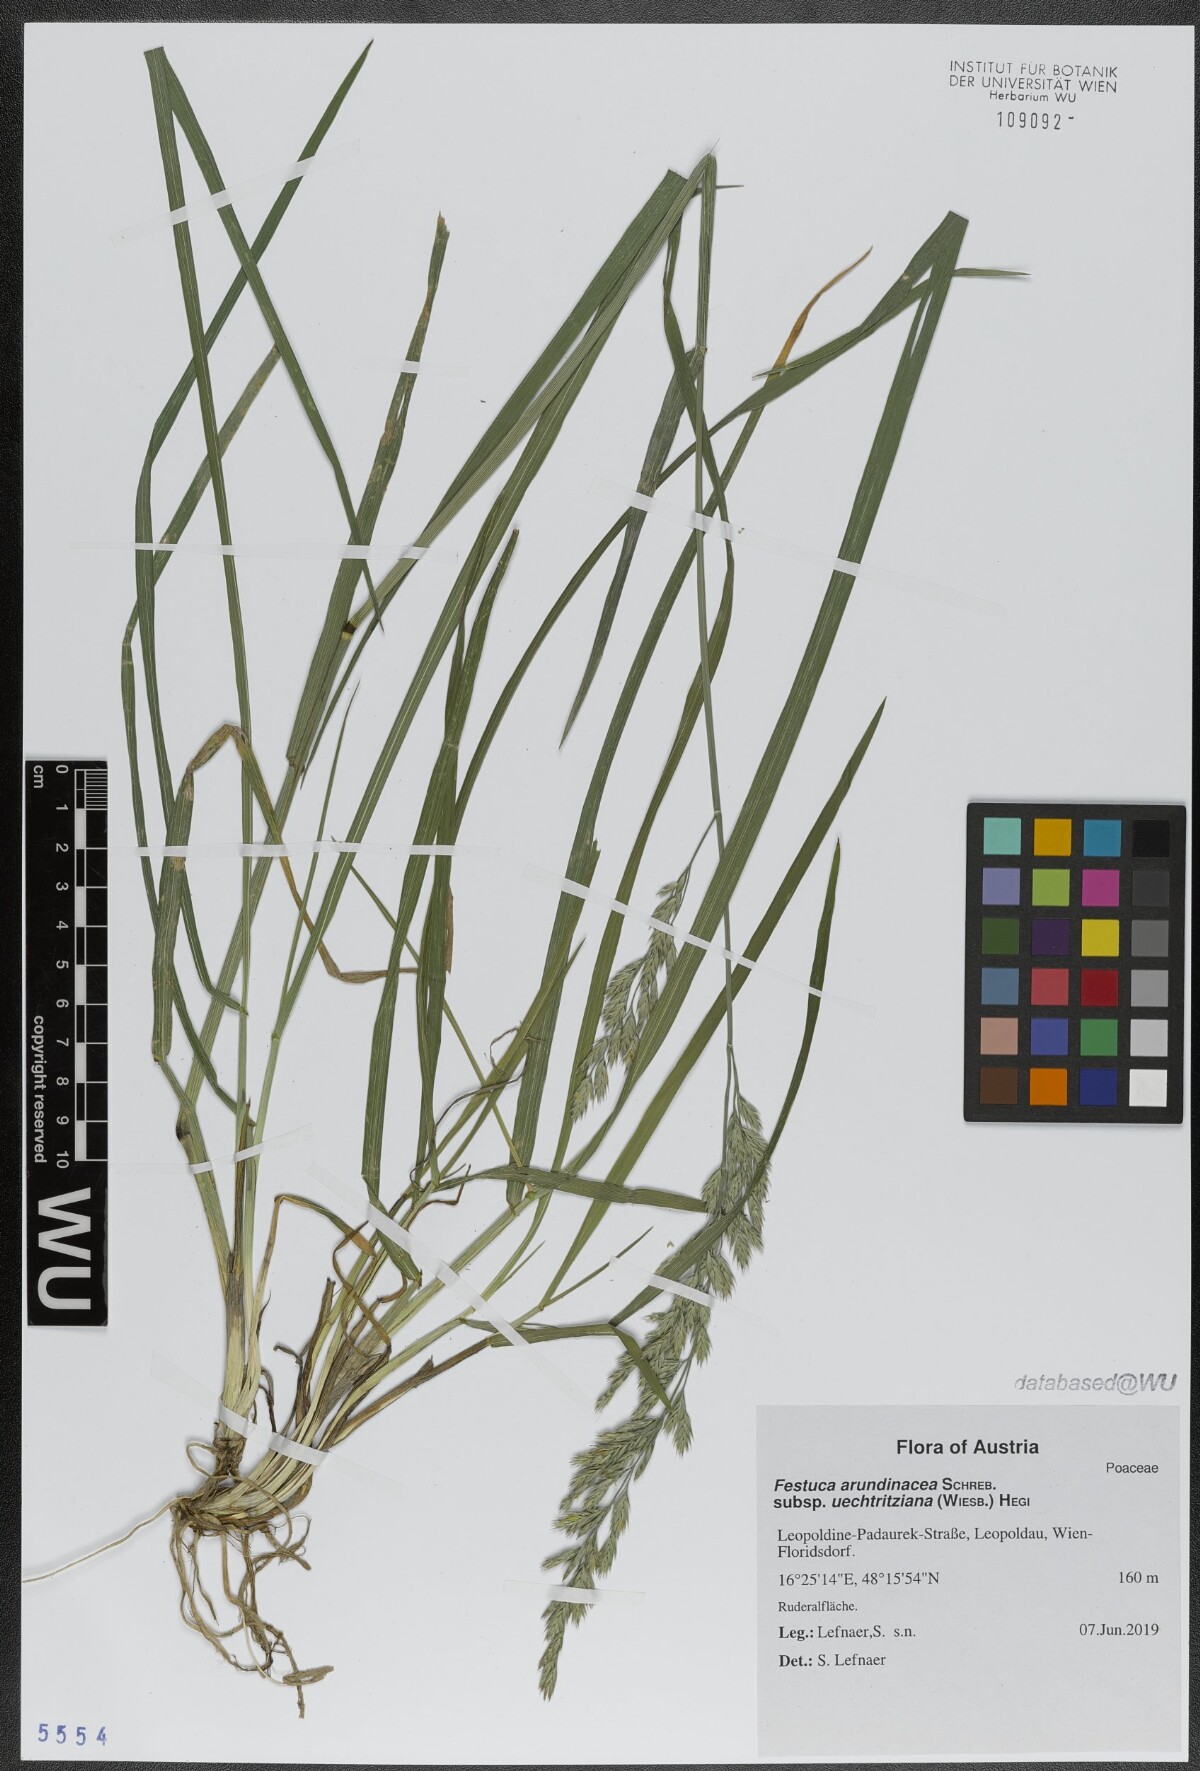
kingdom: Plantae
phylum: Tracheophyta
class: Liliopsida
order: Poales
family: Poaceae
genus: Lolium
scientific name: Lolium arundinaceum
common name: Reed fescue
